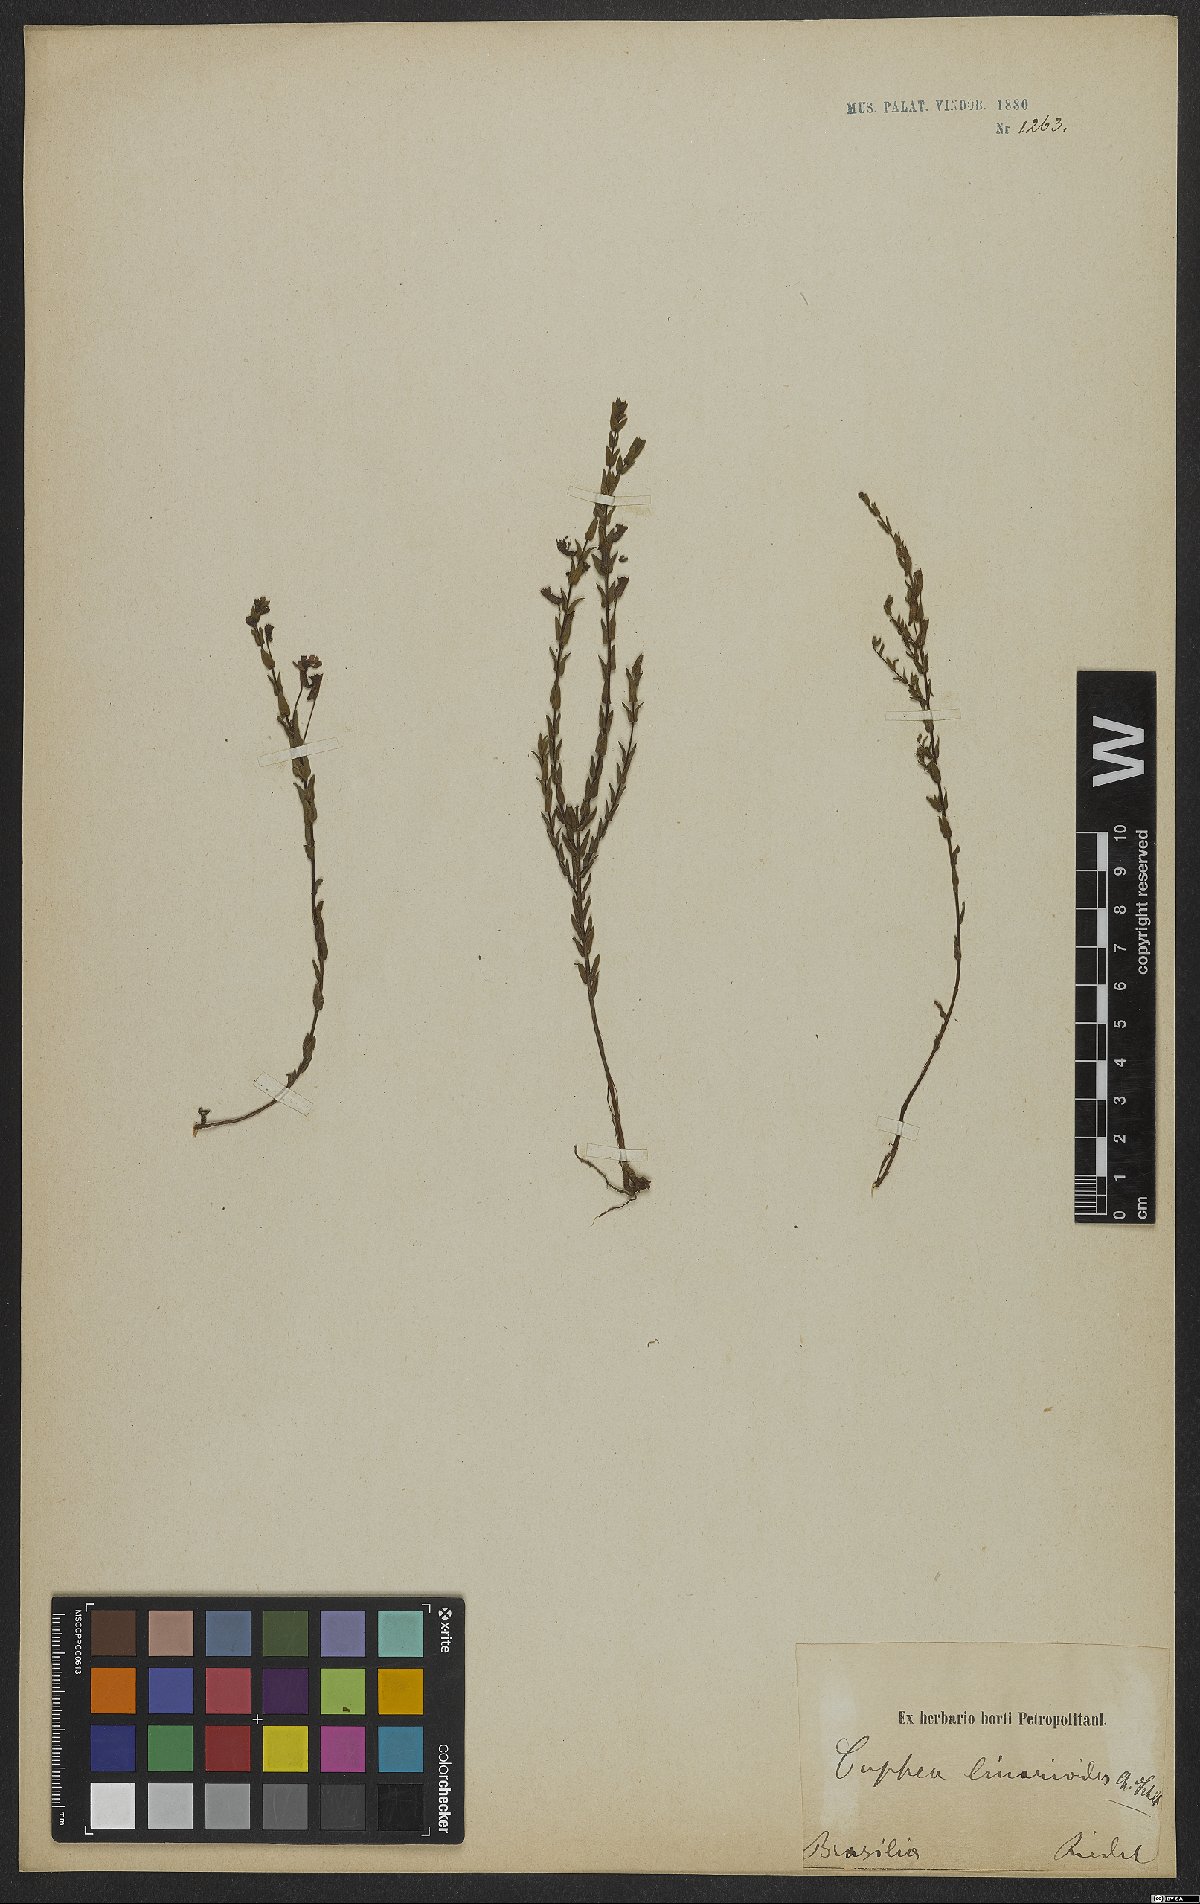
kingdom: Plantae
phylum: Tracheophyta
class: Magnoliopsida
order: Myrtales
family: Lythraceae
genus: Cuphea
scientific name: Cuphea linarioides
